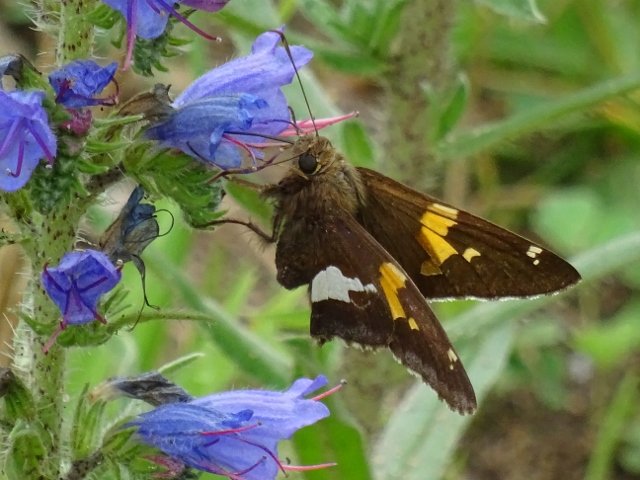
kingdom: Animalia
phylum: Arthropoda
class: Insecta
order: Lepidoptera
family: Hesperiidae
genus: Epargyreus
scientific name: Epargyreus clarus
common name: Silver-spotted Skipper
